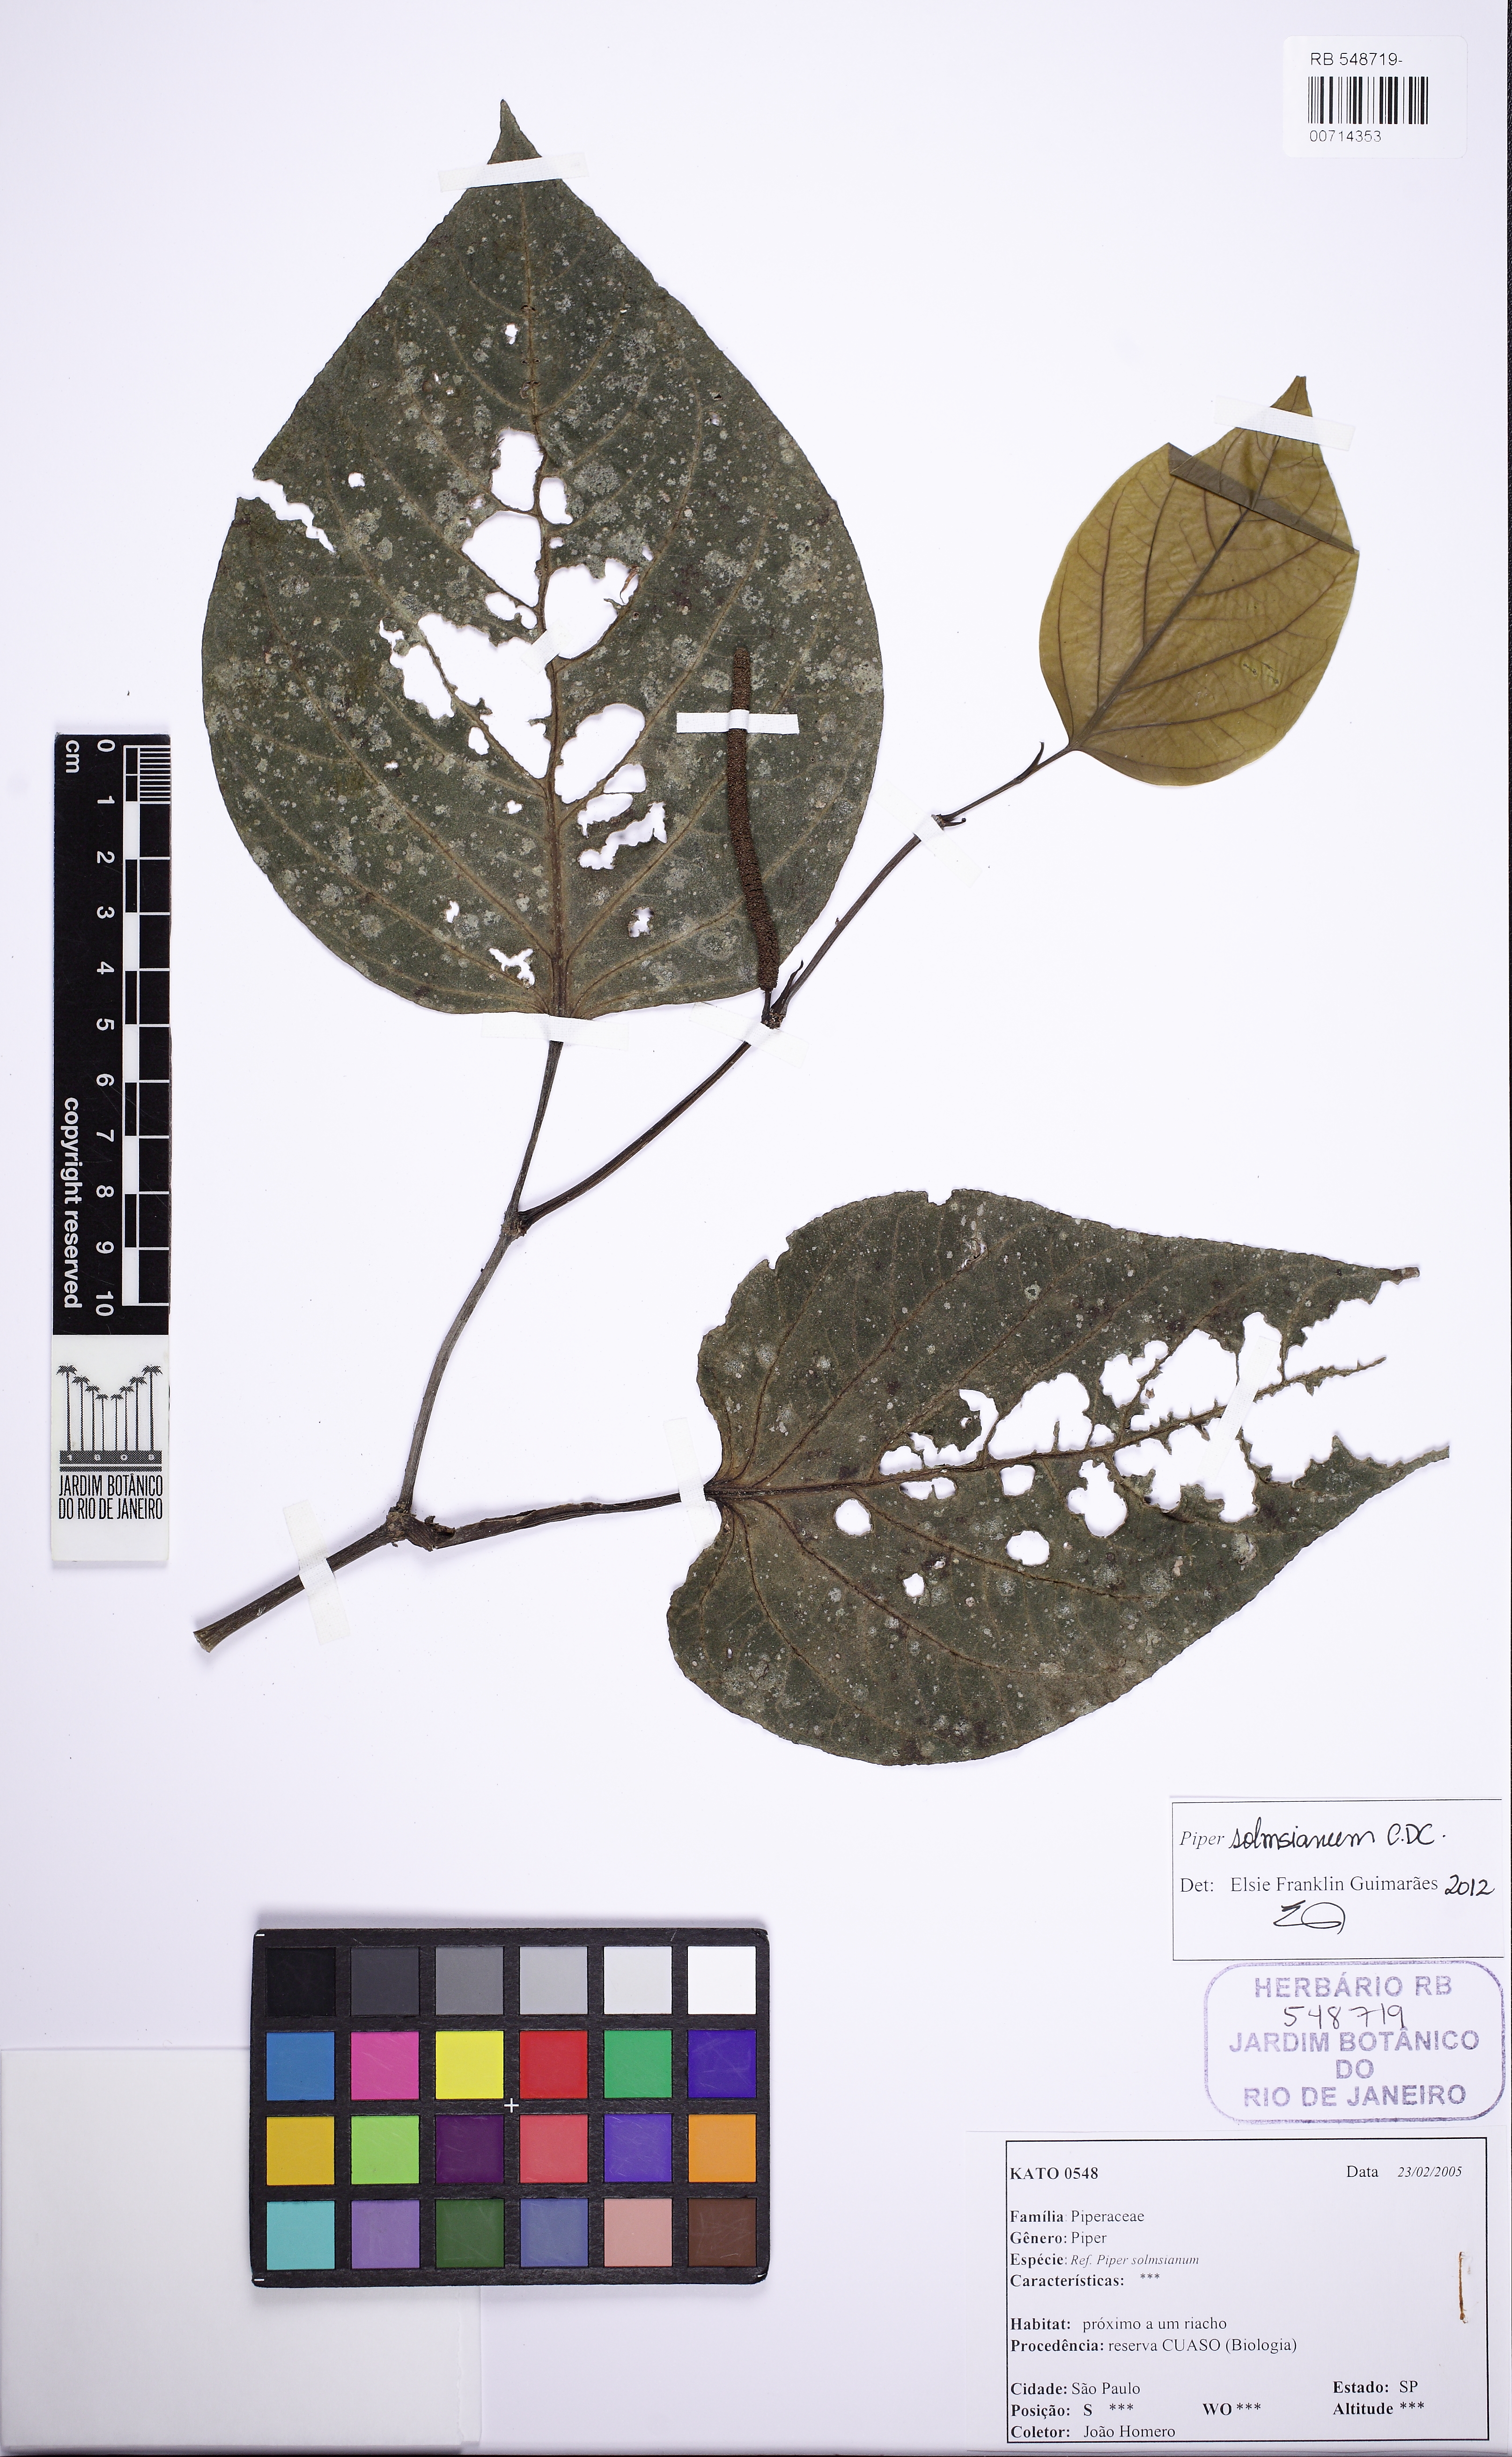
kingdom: Plantae
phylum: Tracheophyta
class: Magnoliopsida
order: Piperales
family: Piperaceae
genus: Piper
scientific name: Piper solmsianum
